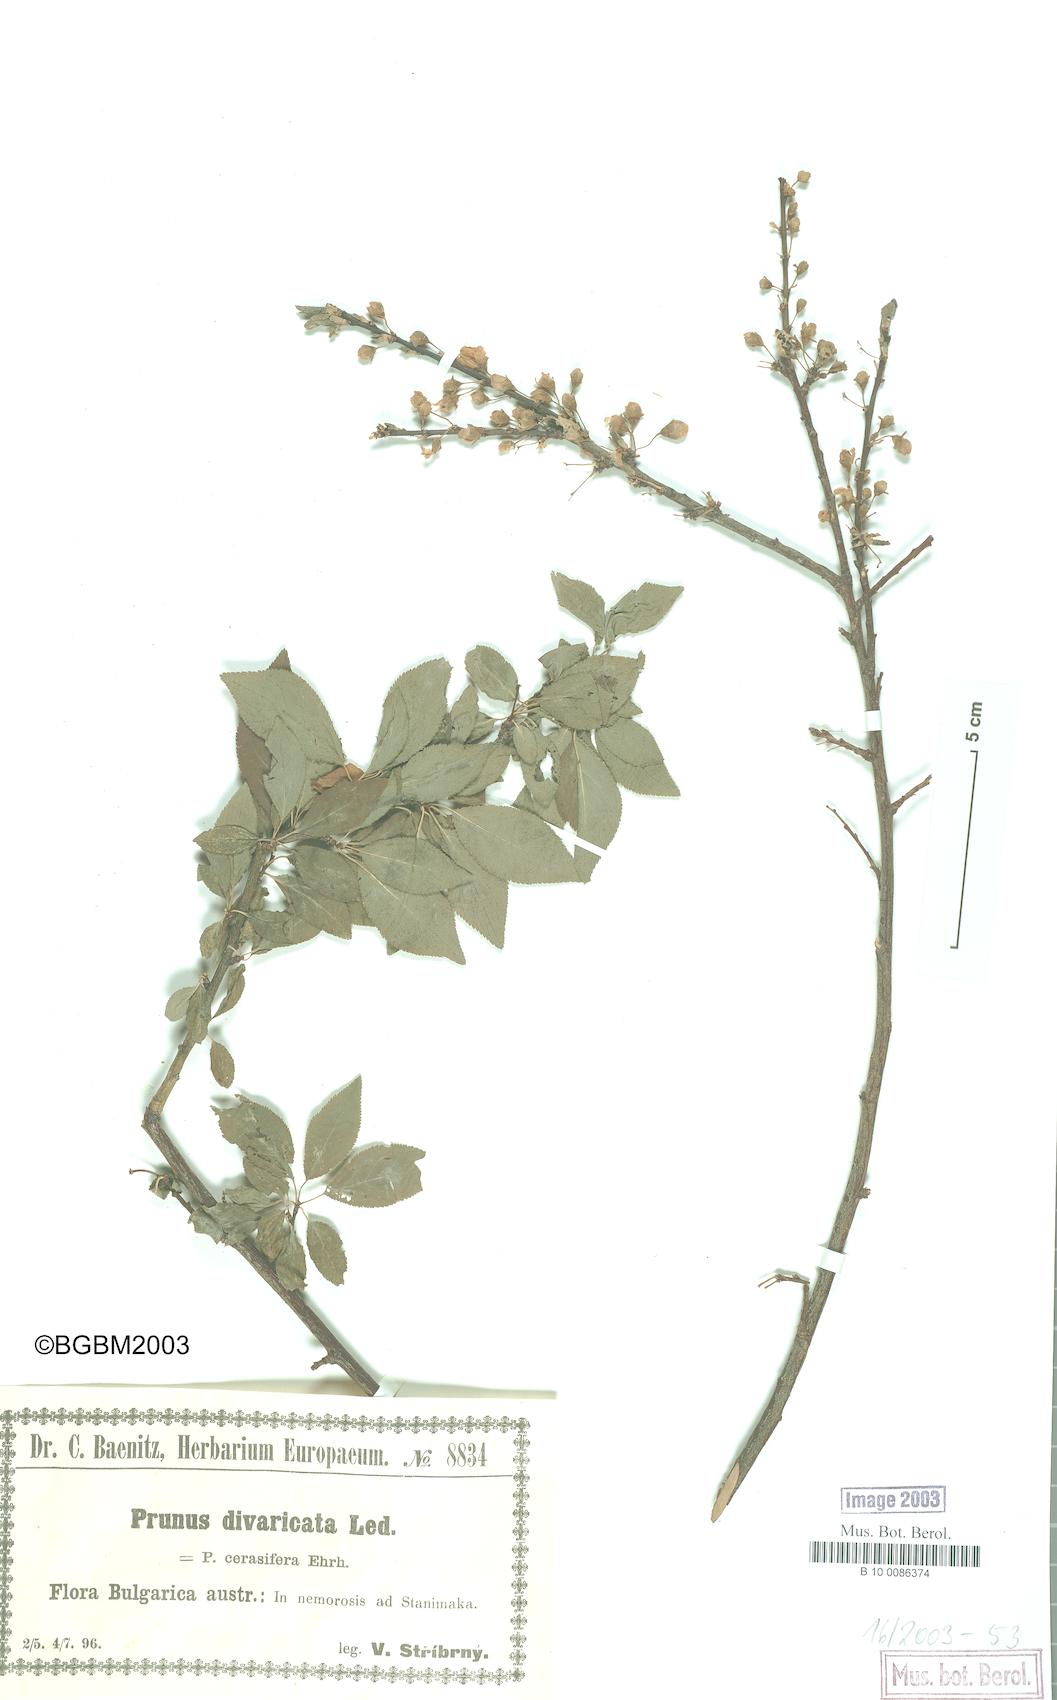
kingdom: Plantae
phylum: Tracheophyta
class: Magnoliopsida
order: Rosales
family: Rosaceae
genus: Prunus
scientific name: Prunus cerasifera
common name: Cherry plum
